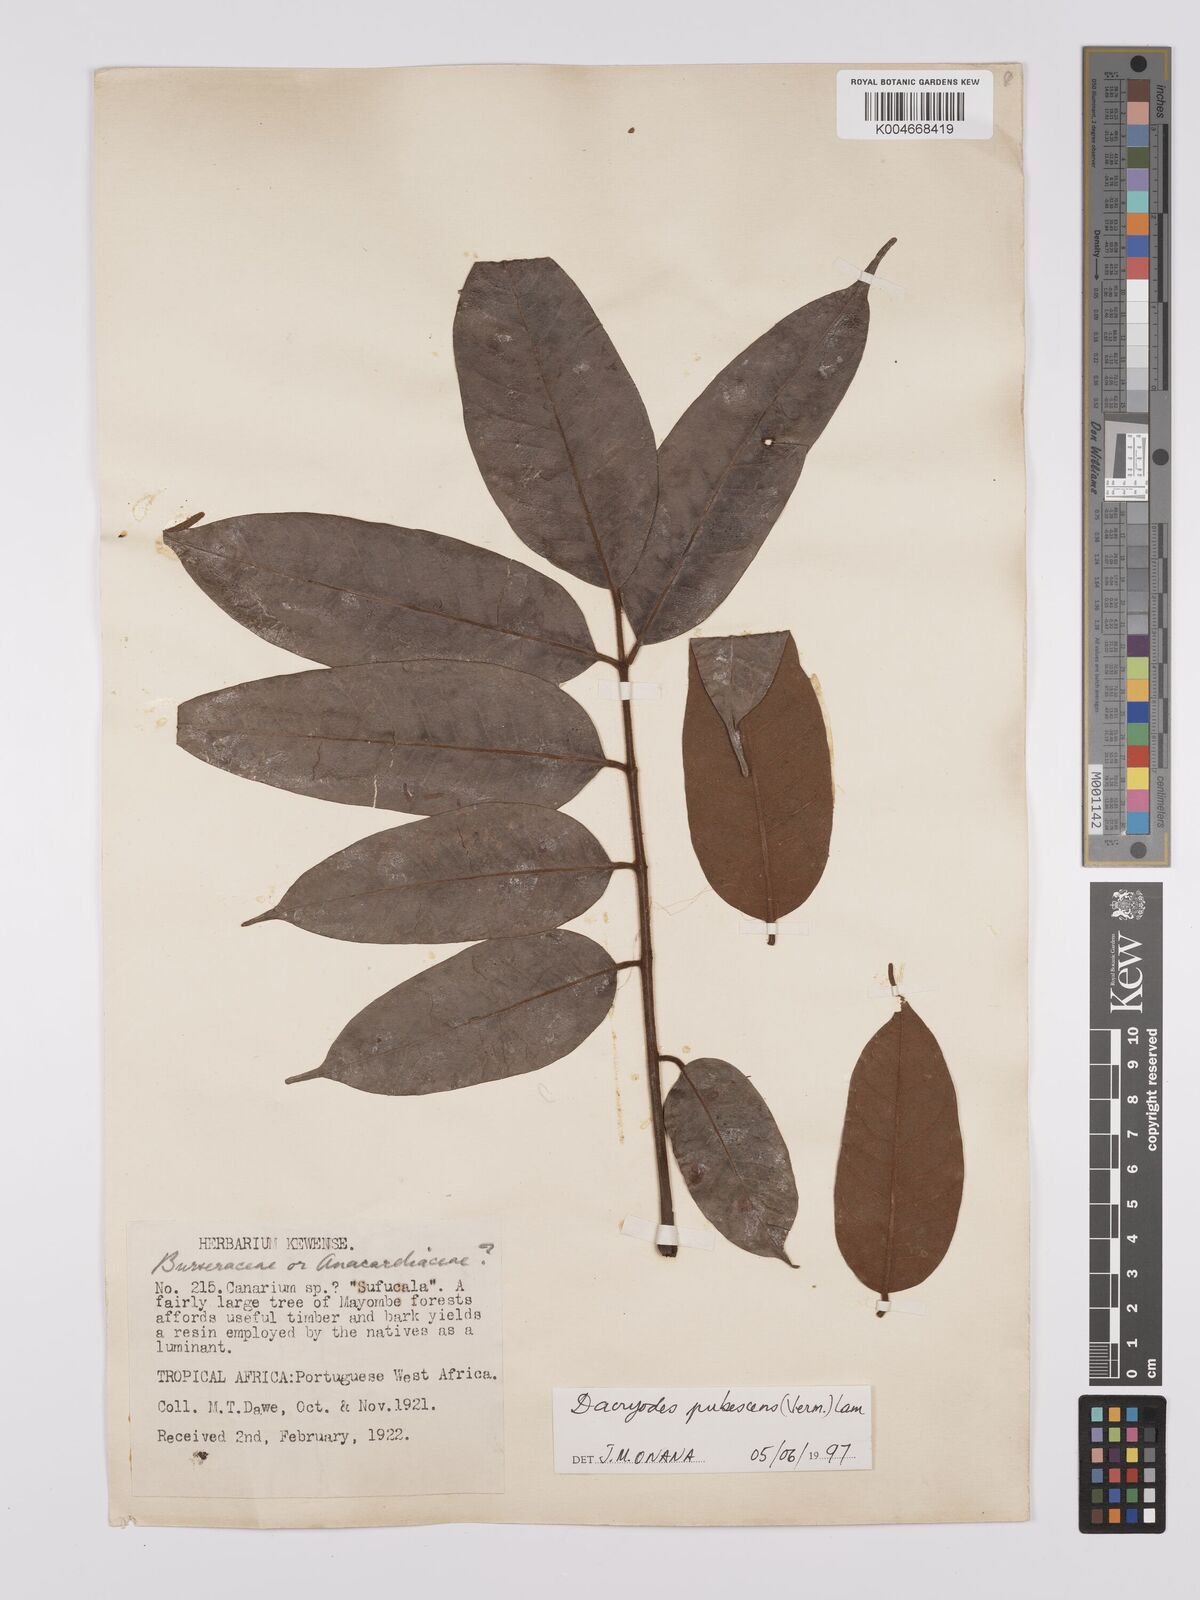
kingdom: Plantae
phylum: Tracheophyta
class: Magnoliopsida
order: Sapindales
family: Burseraceae
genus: Pachylobus
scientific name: Pachylobus pubescens
